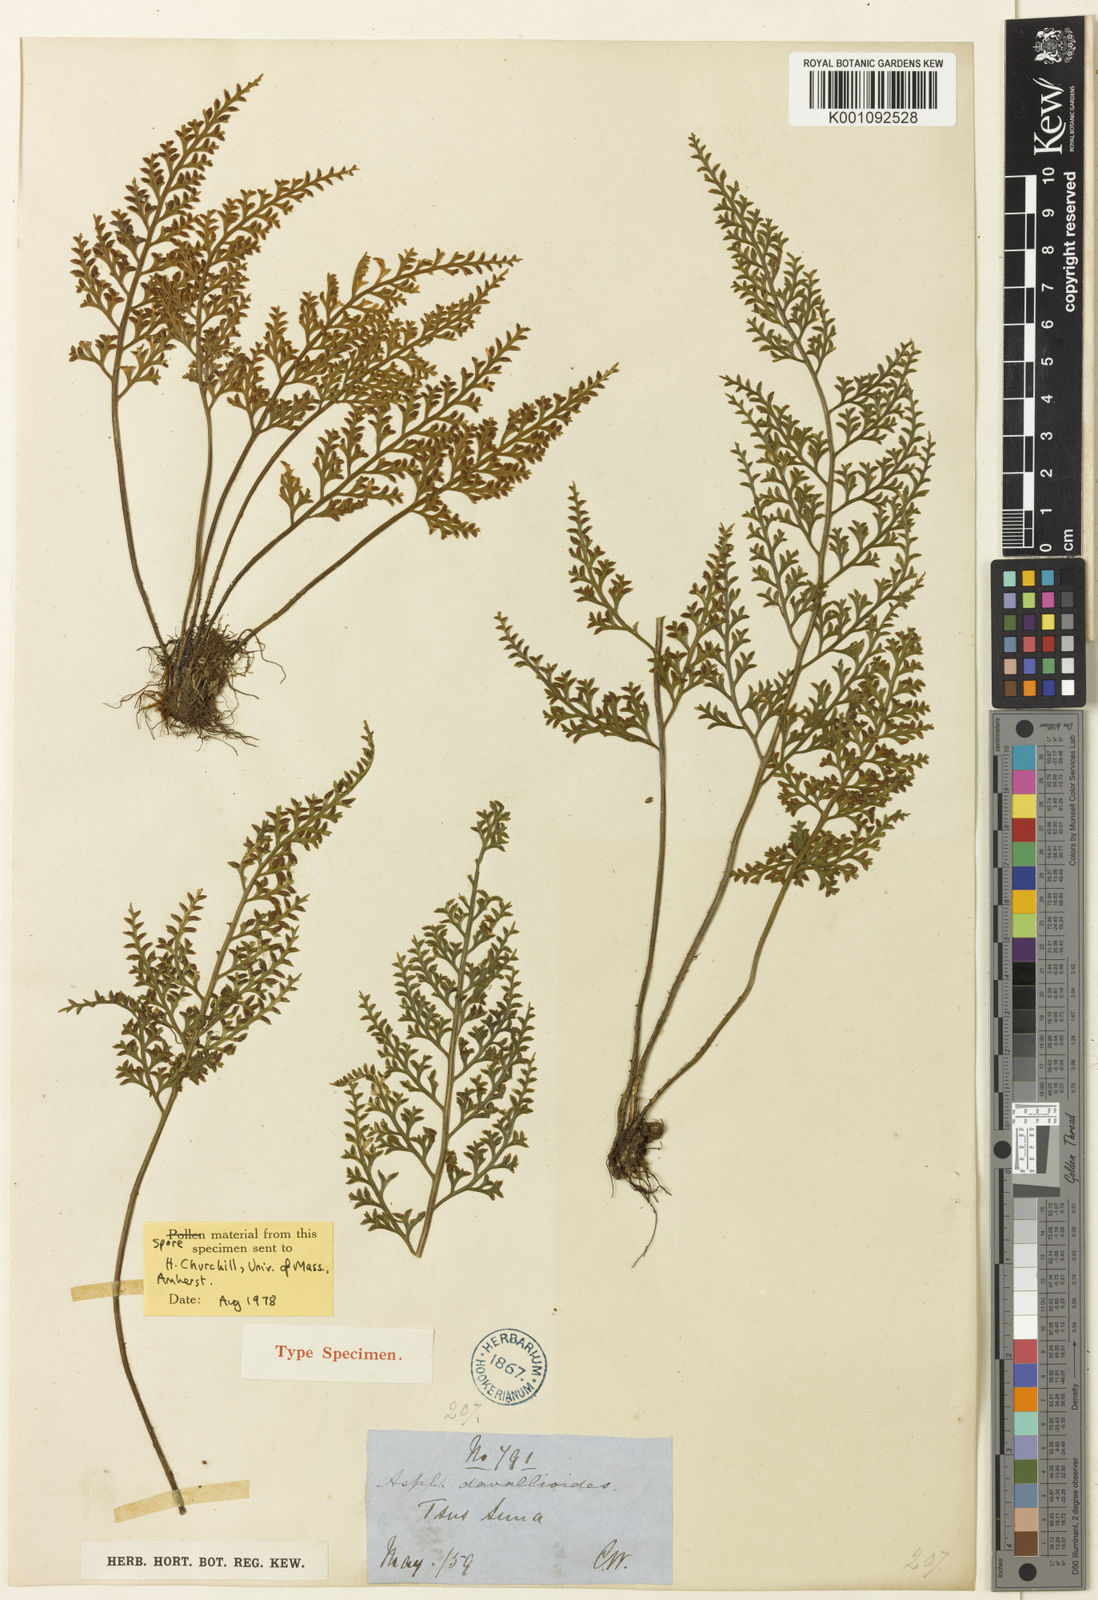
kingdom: Plantae
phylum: Tracheophyta
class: Polypodiopsida
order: Polypodiales
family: Aspleniaceae
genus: Asplenium
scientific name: Asplenium ritoense
